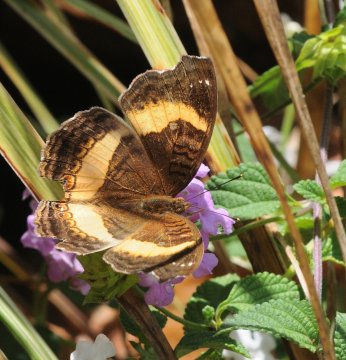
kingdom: Animalia
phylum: Arthropoda
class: Insecta
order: Lepidoptera
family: Nymphalidae
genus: Junonia
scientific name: Junonia terea
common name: Soldier Pansy
